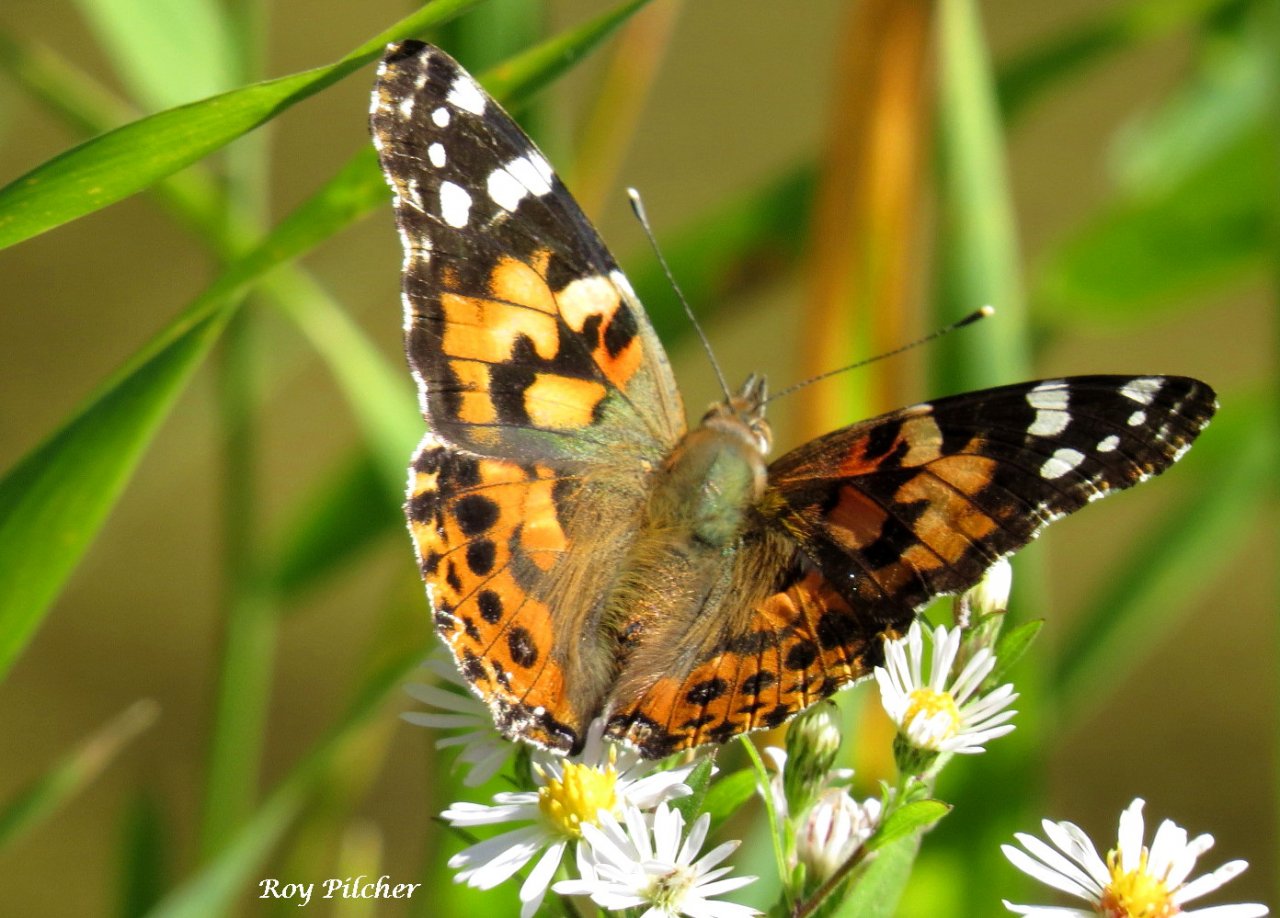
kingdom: Animalia
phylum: Arthropoda
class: Insecta
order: Lepidoptera
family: Nymphalidae
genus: Vanessa
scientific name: Vanessa cardui
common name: Painted Lady
